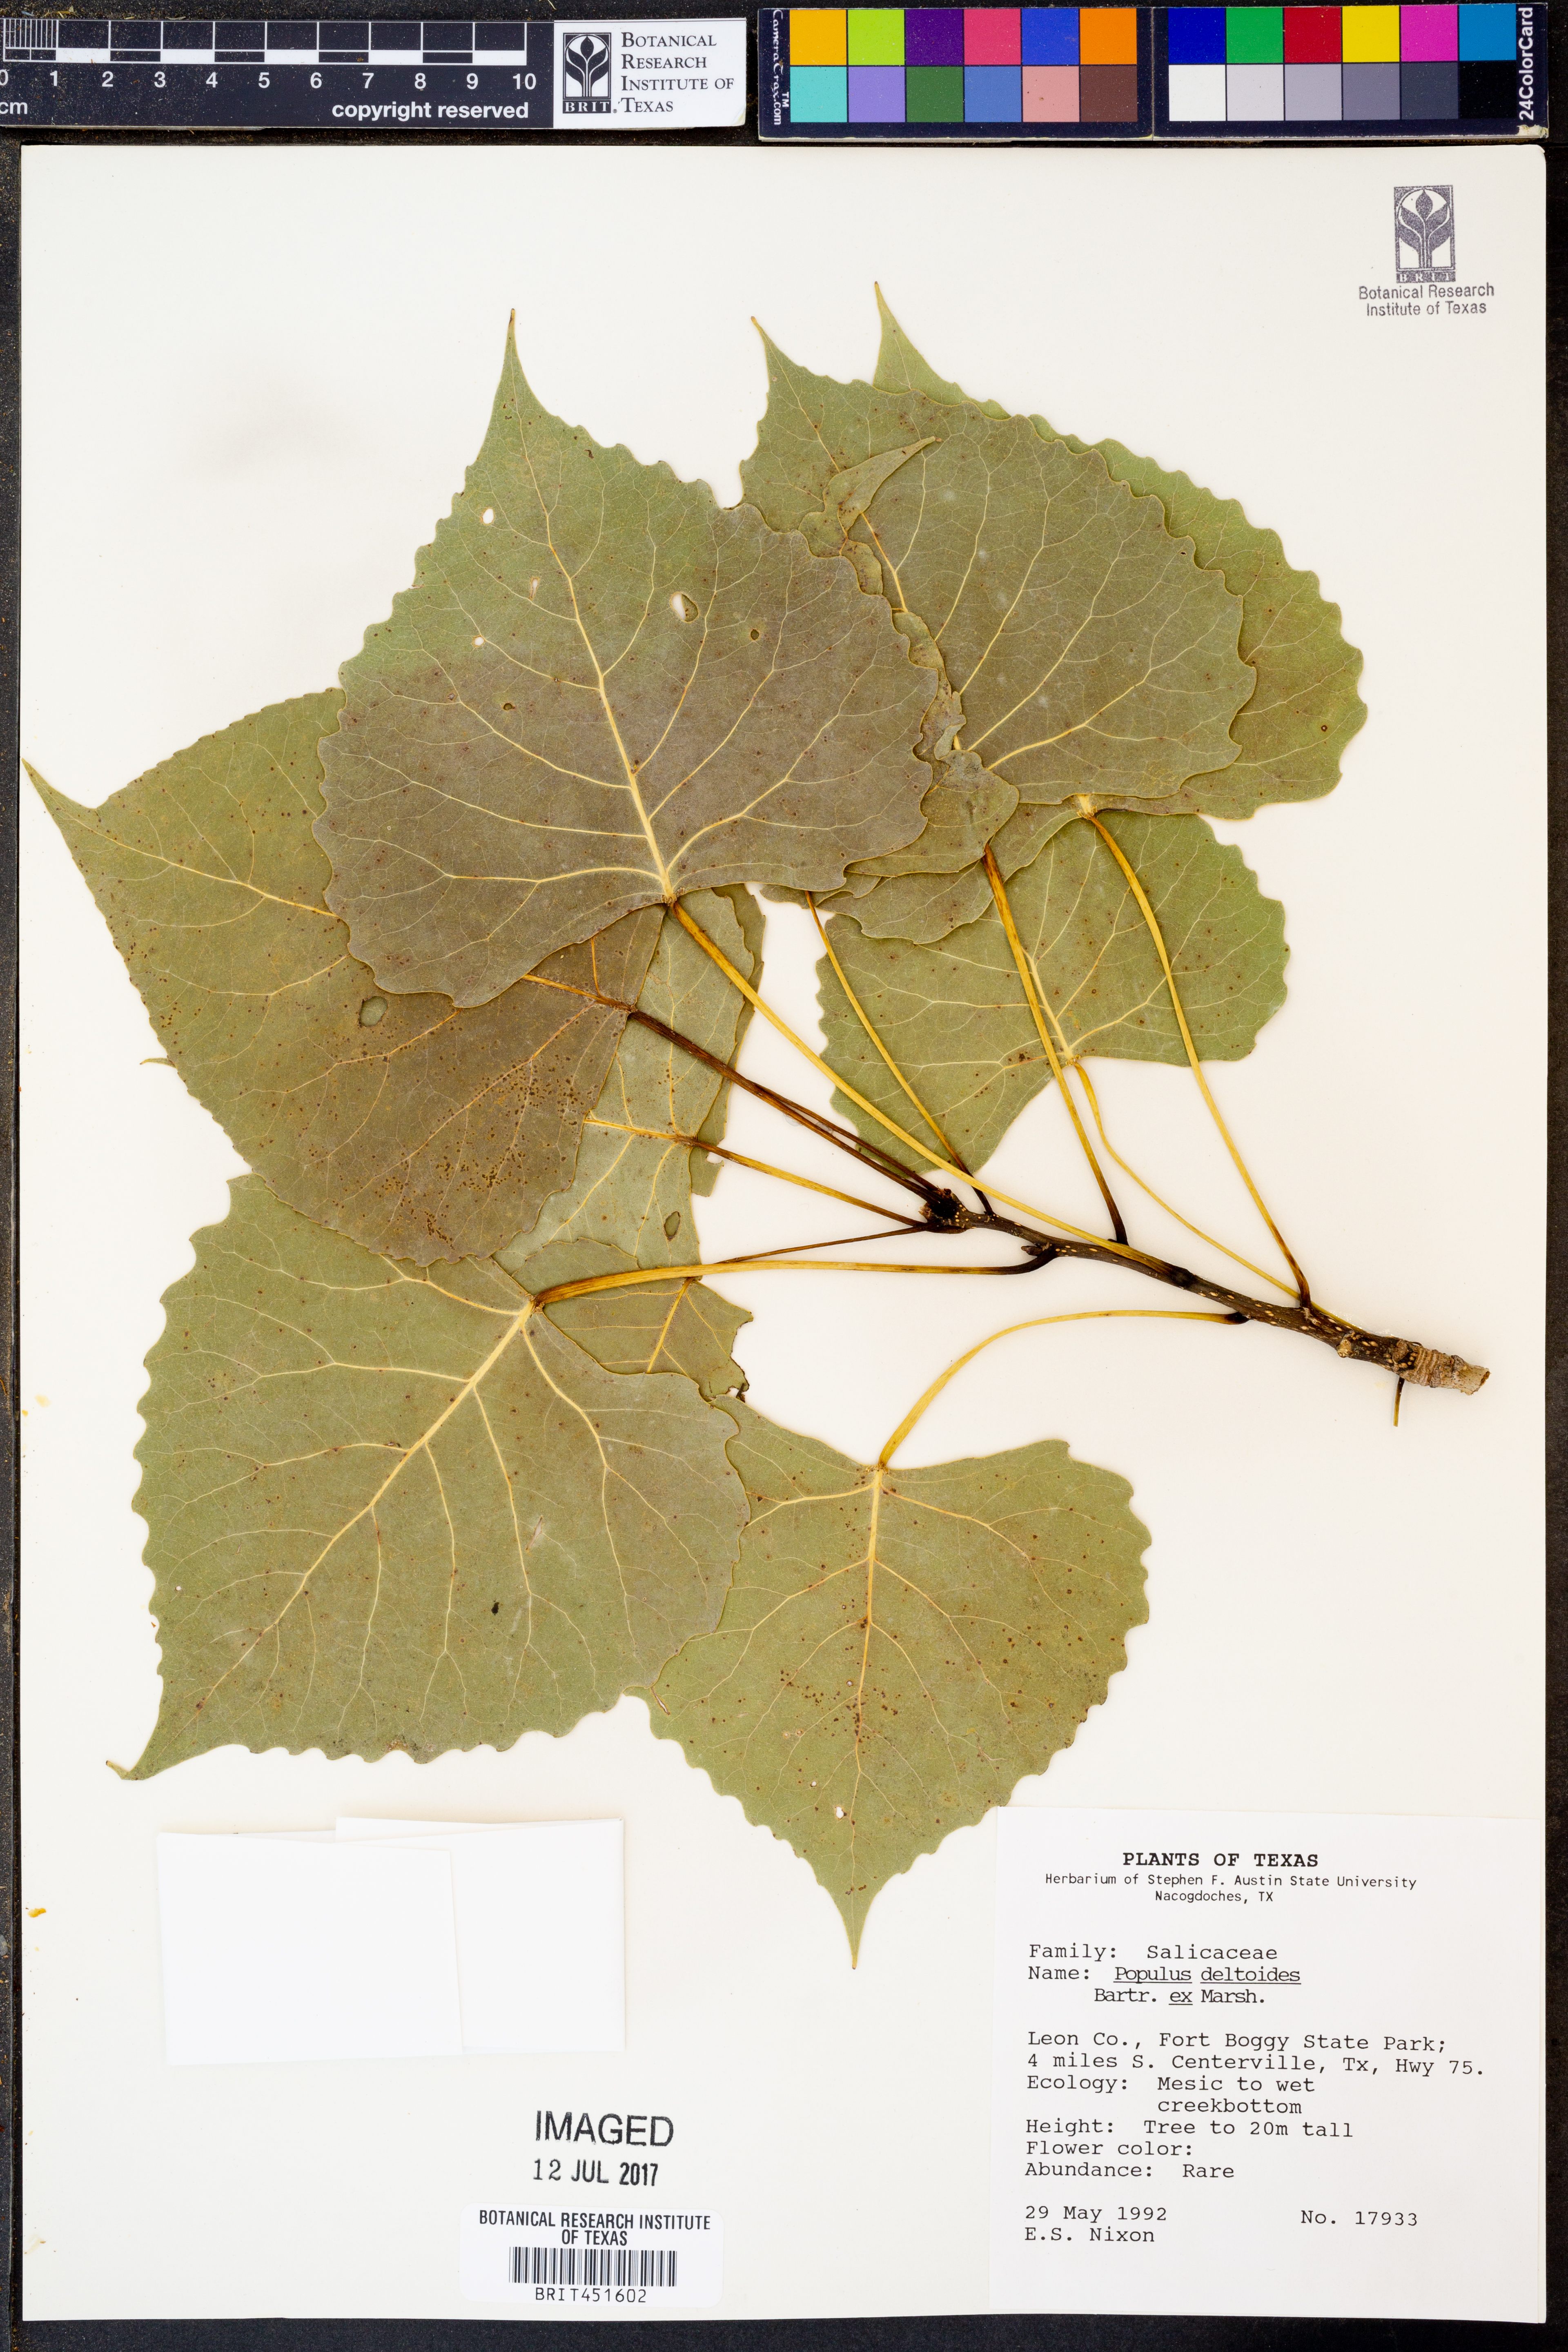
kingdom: Plantae
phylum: Tracheophyta
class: Magnoliopsida
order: Malpighiales
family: Salicaceae
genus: Populus
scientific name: Populus deltoides
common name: Eastern cottonwood
